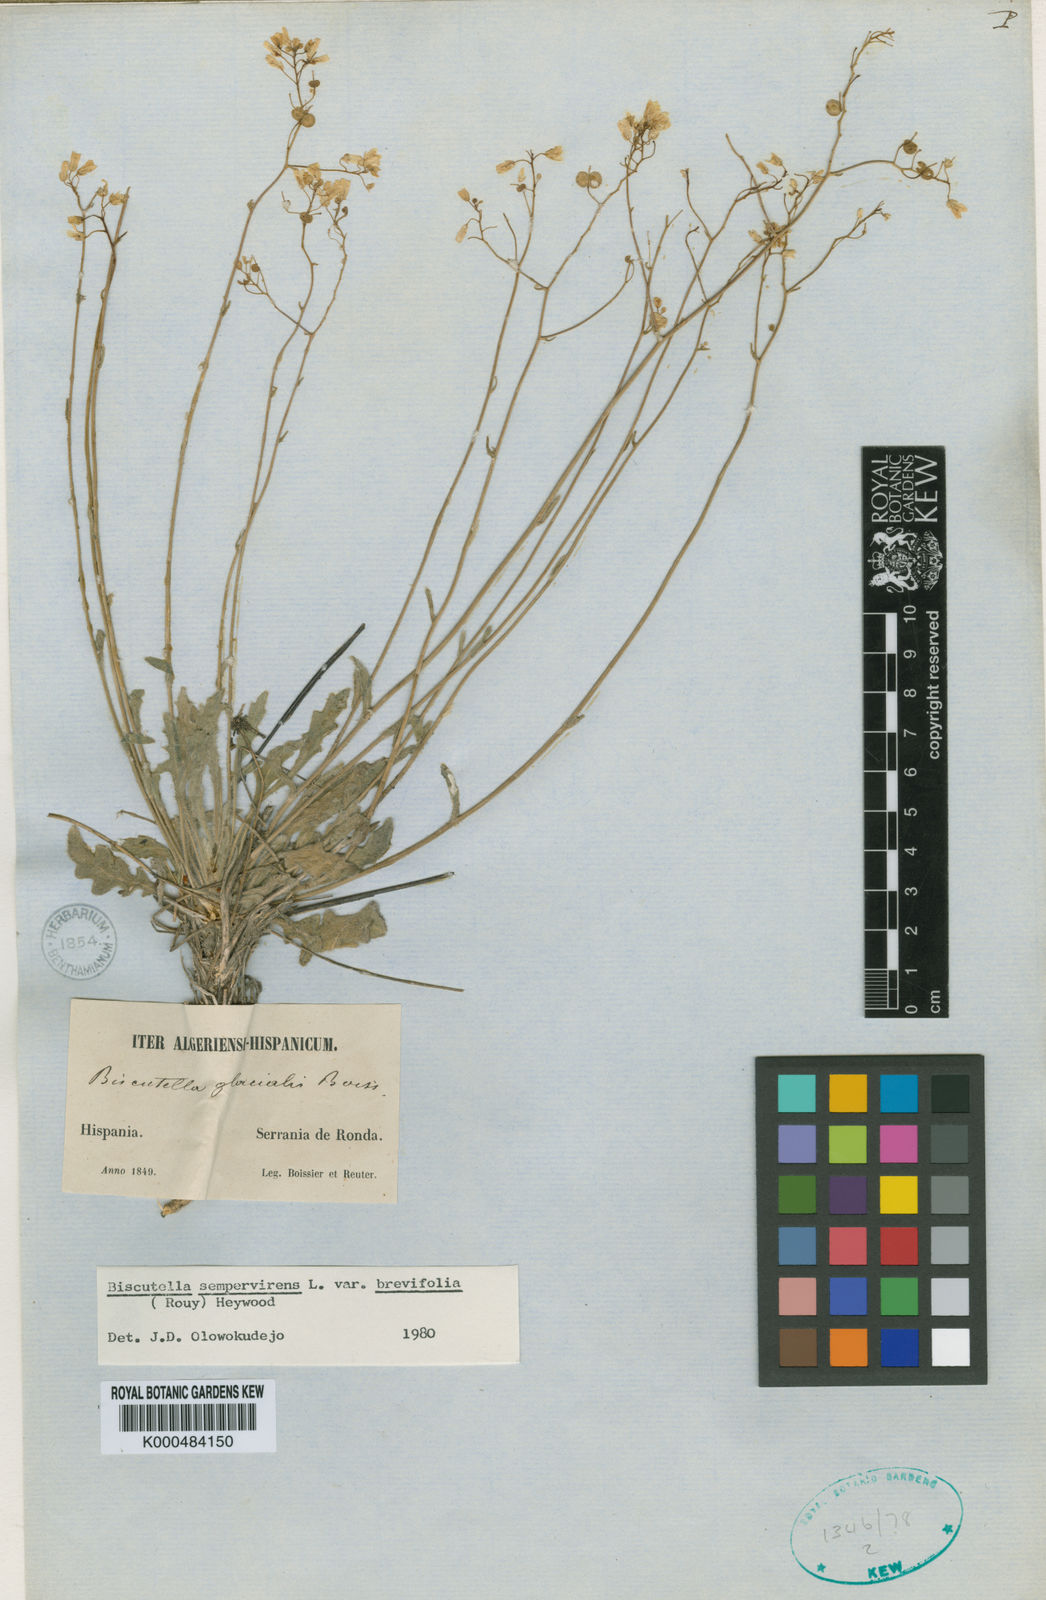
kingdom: Plantae
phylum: Tracheophyta
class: Magnoliopsida
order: Brassicales
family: Brassicaceae
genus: Biscutella
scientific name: Biscutella sempervirens
